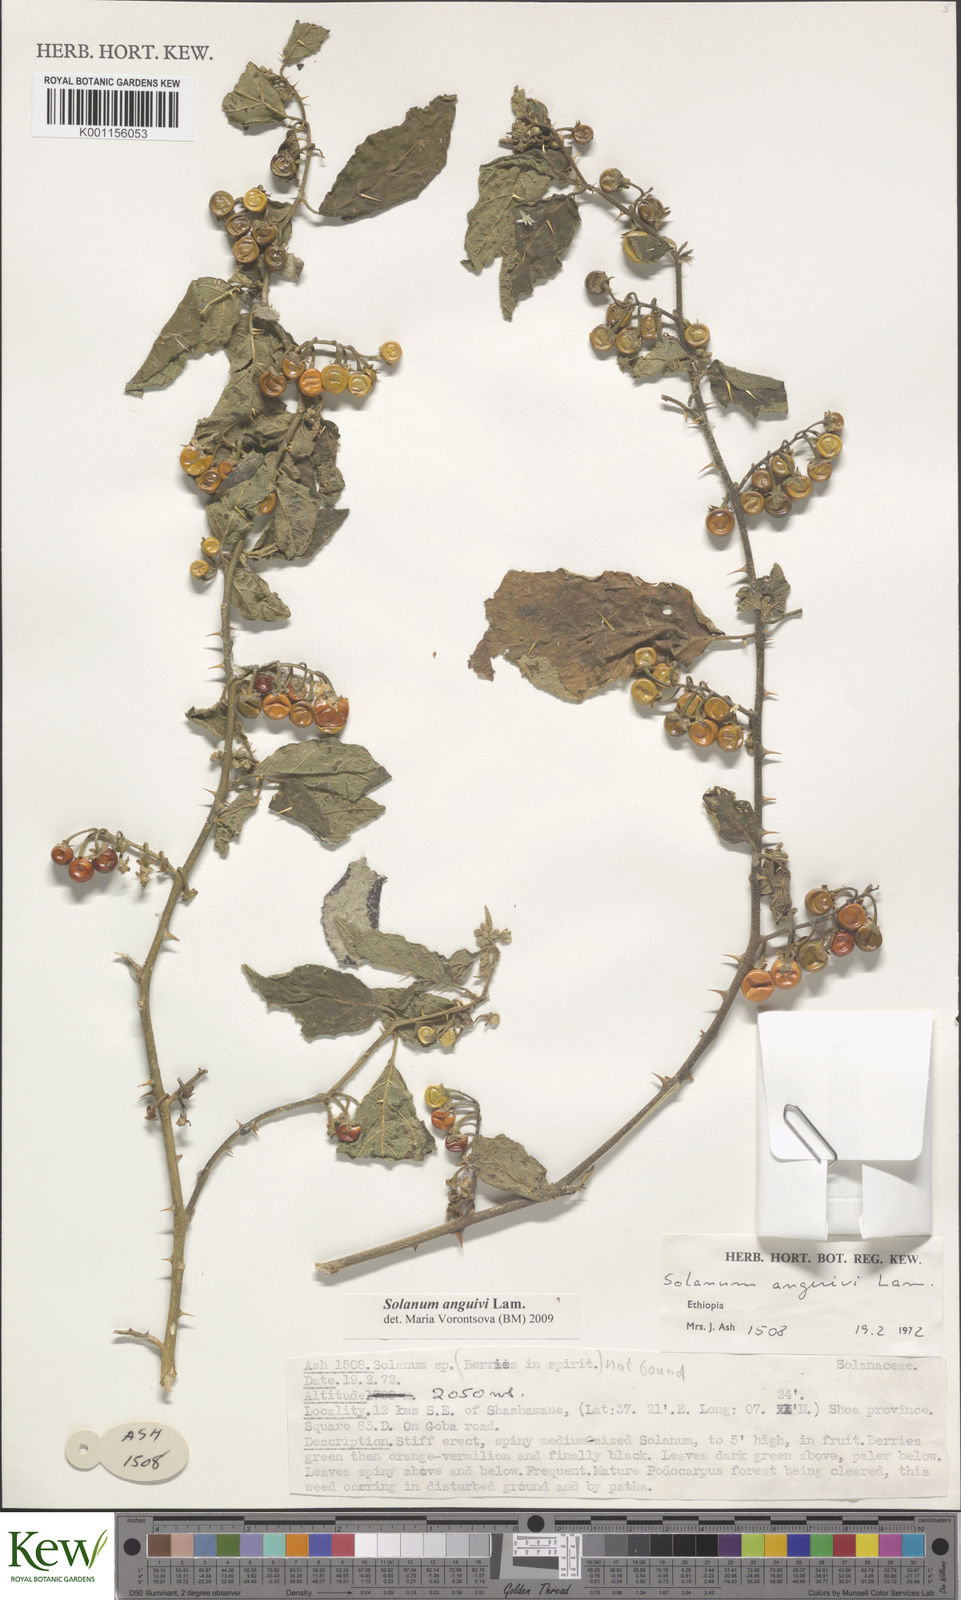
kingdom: Plantae
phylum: Tracheophyta
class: Magnoliopsida
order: Solanales
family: Solanaceae
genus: Solanum
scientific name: Solanum anguivi
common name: Forest bitterberry
